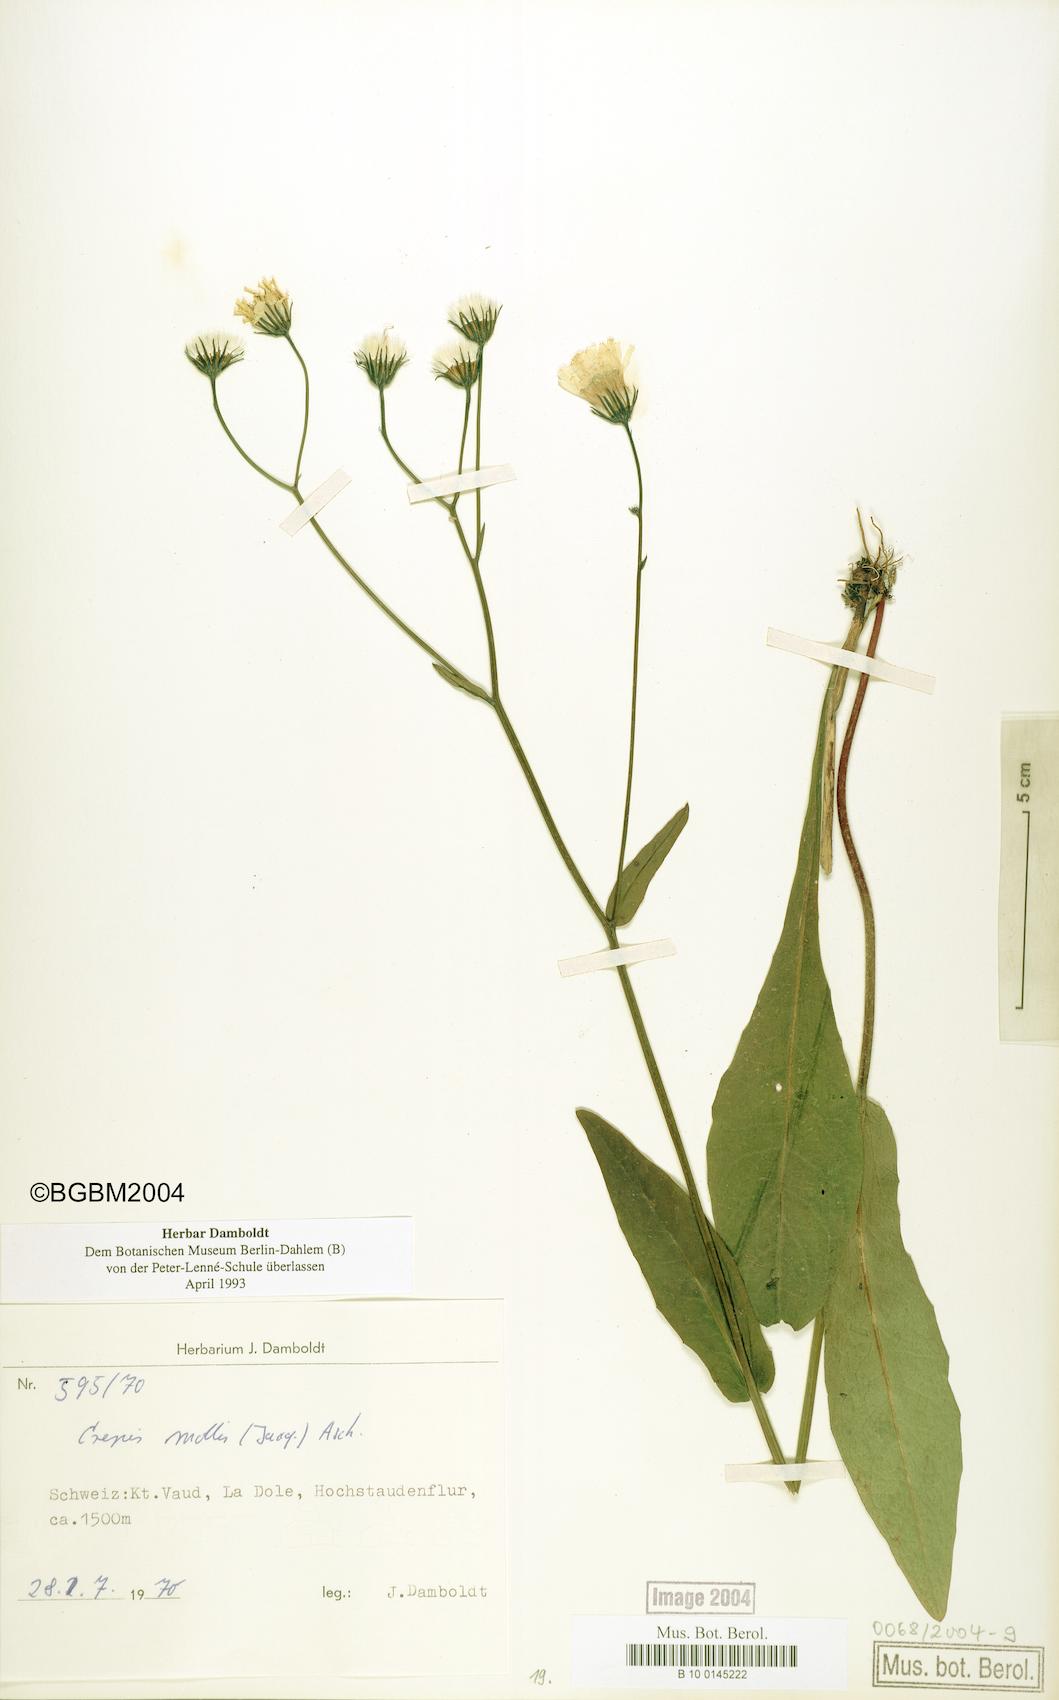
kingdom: Plantae
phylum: Tracheophyta
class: Magnoliopsida
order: Asterales
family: Asteraceae
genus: Crepis
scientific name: Crepis mollis
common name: Northern hawk's-beard
